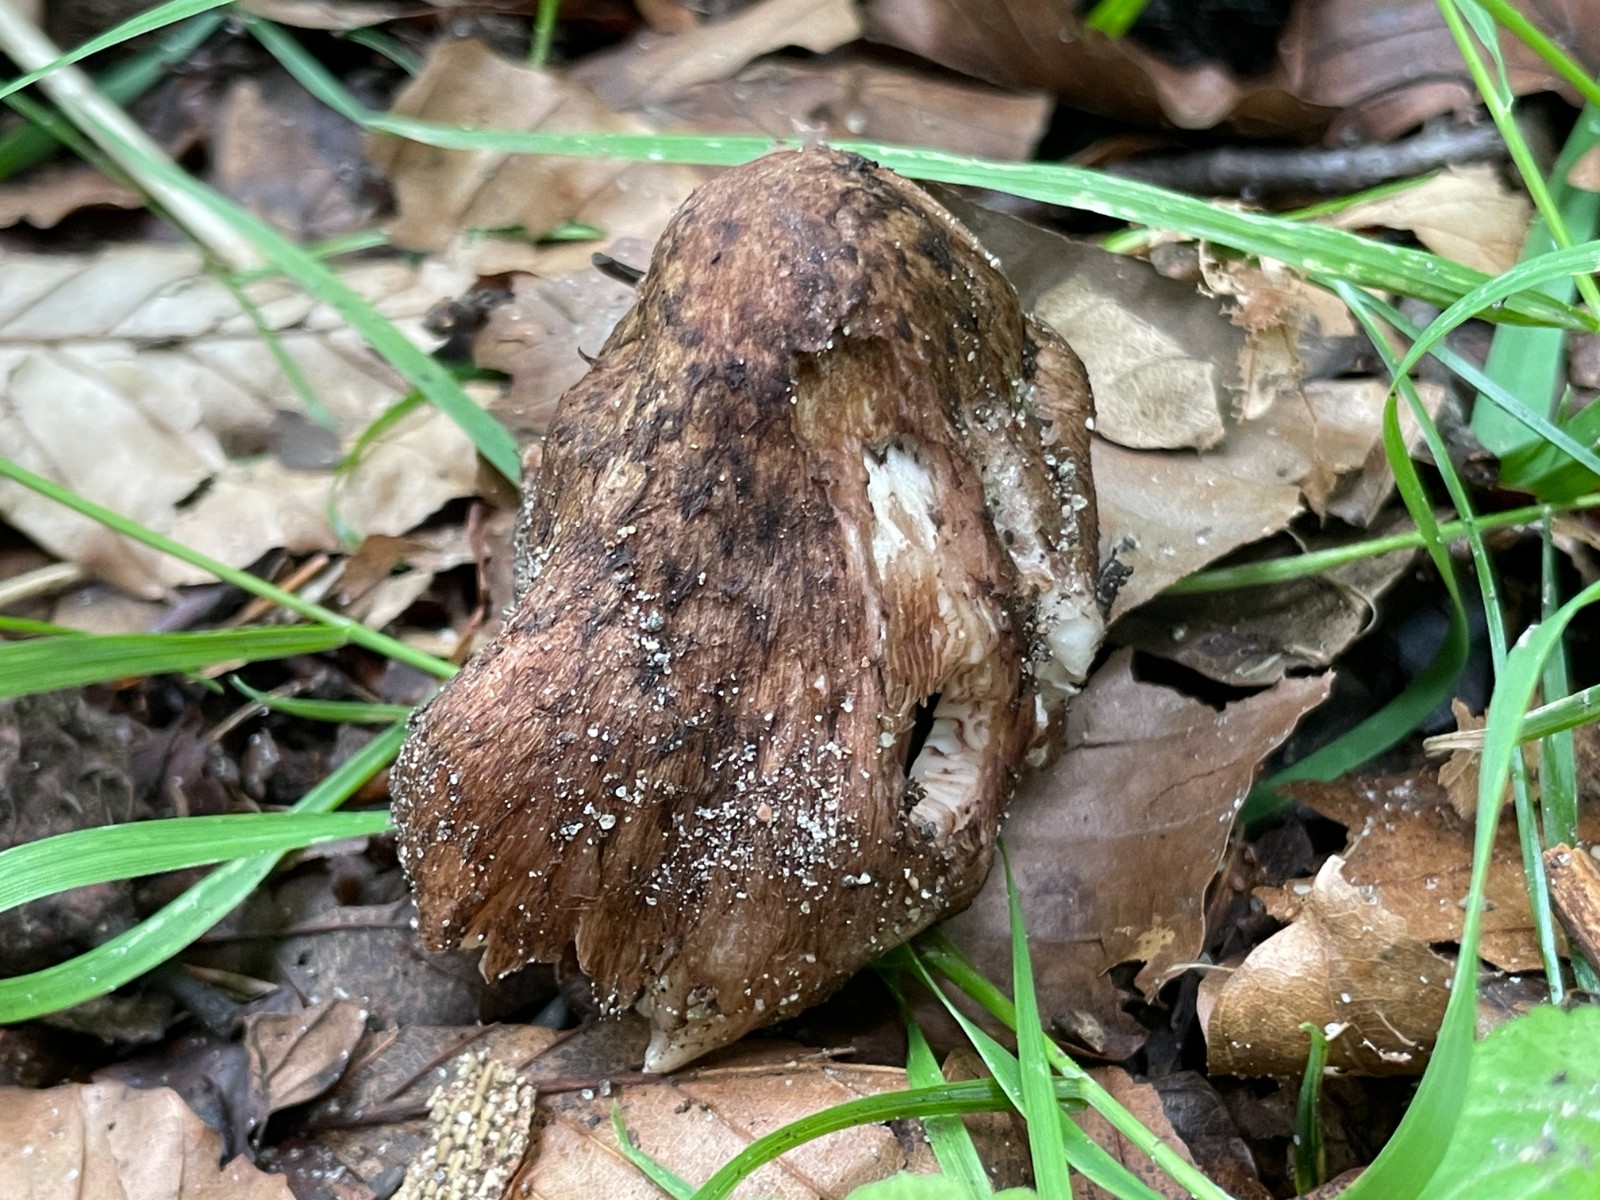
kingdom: Fungi
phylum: Basidiomycota
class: Agaricomycetes
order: Agaricales
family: Inocybaceae
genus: Inosperma
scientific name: Inosperma adaequatum
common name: vinrød trævlhat
